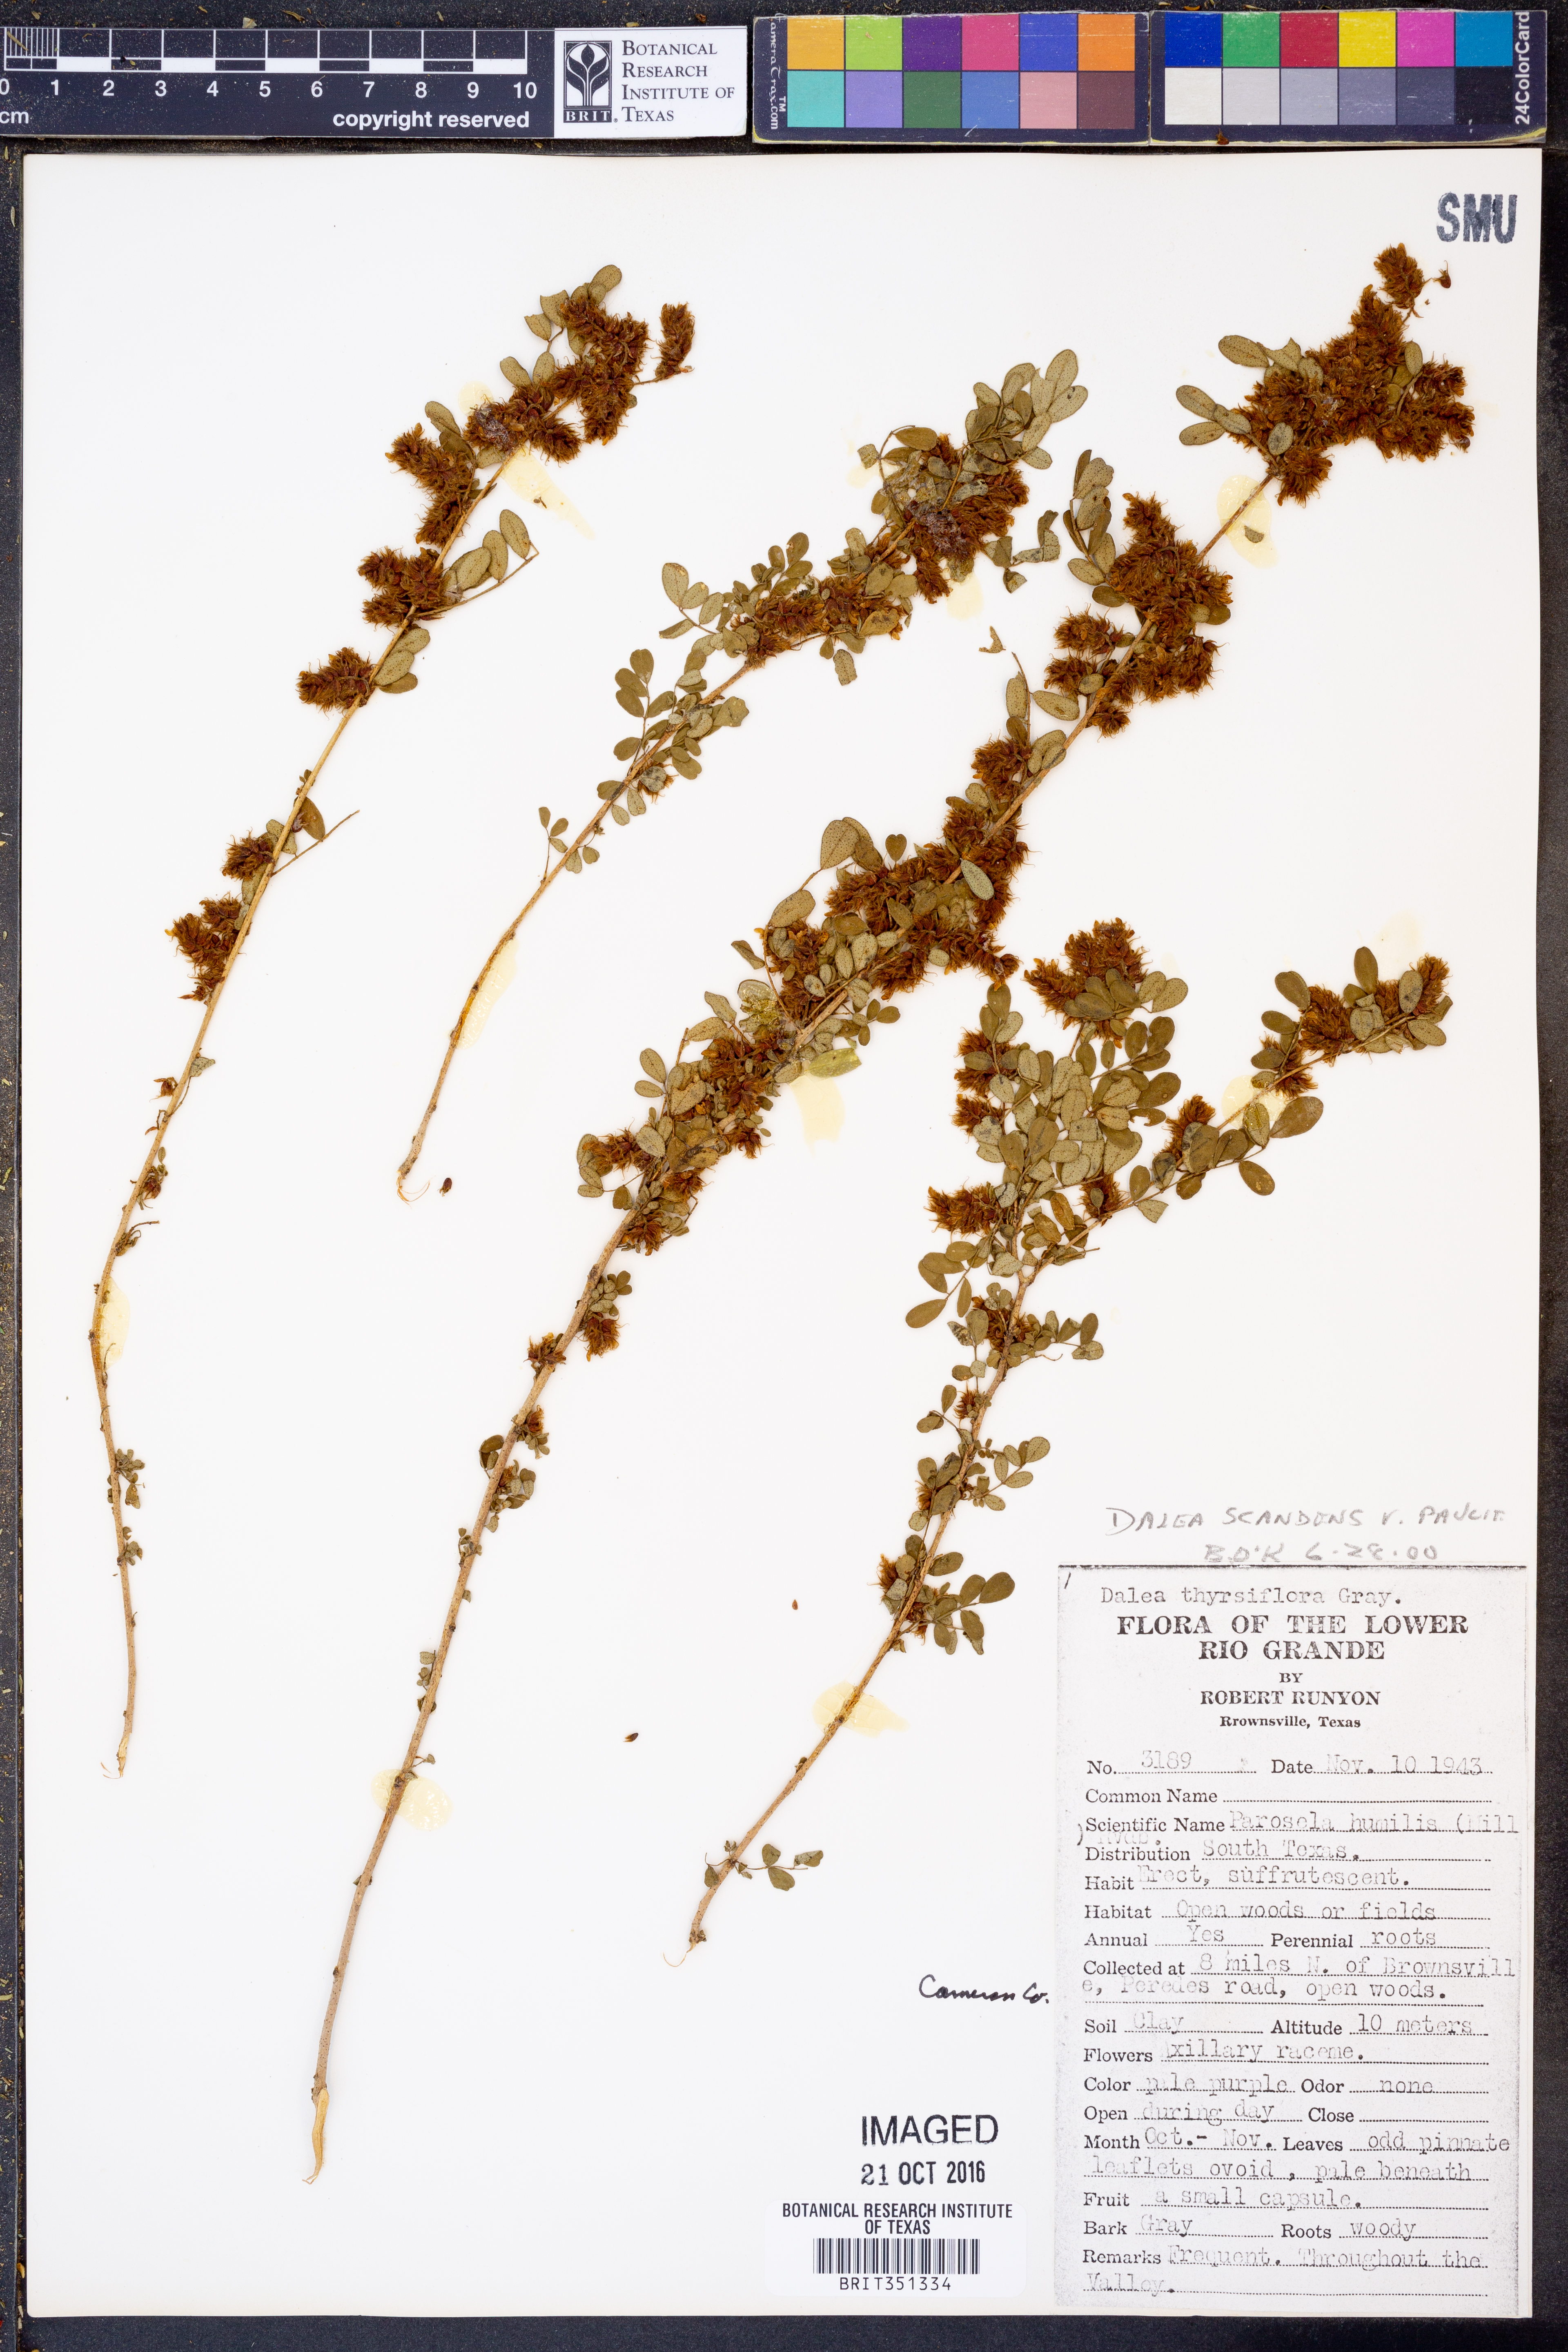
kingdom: Plantae
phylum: Tracheophyta
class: Magnoliopsida
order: Fabales
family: Fabaceae
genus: Dalea
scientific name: Dalea scandens
